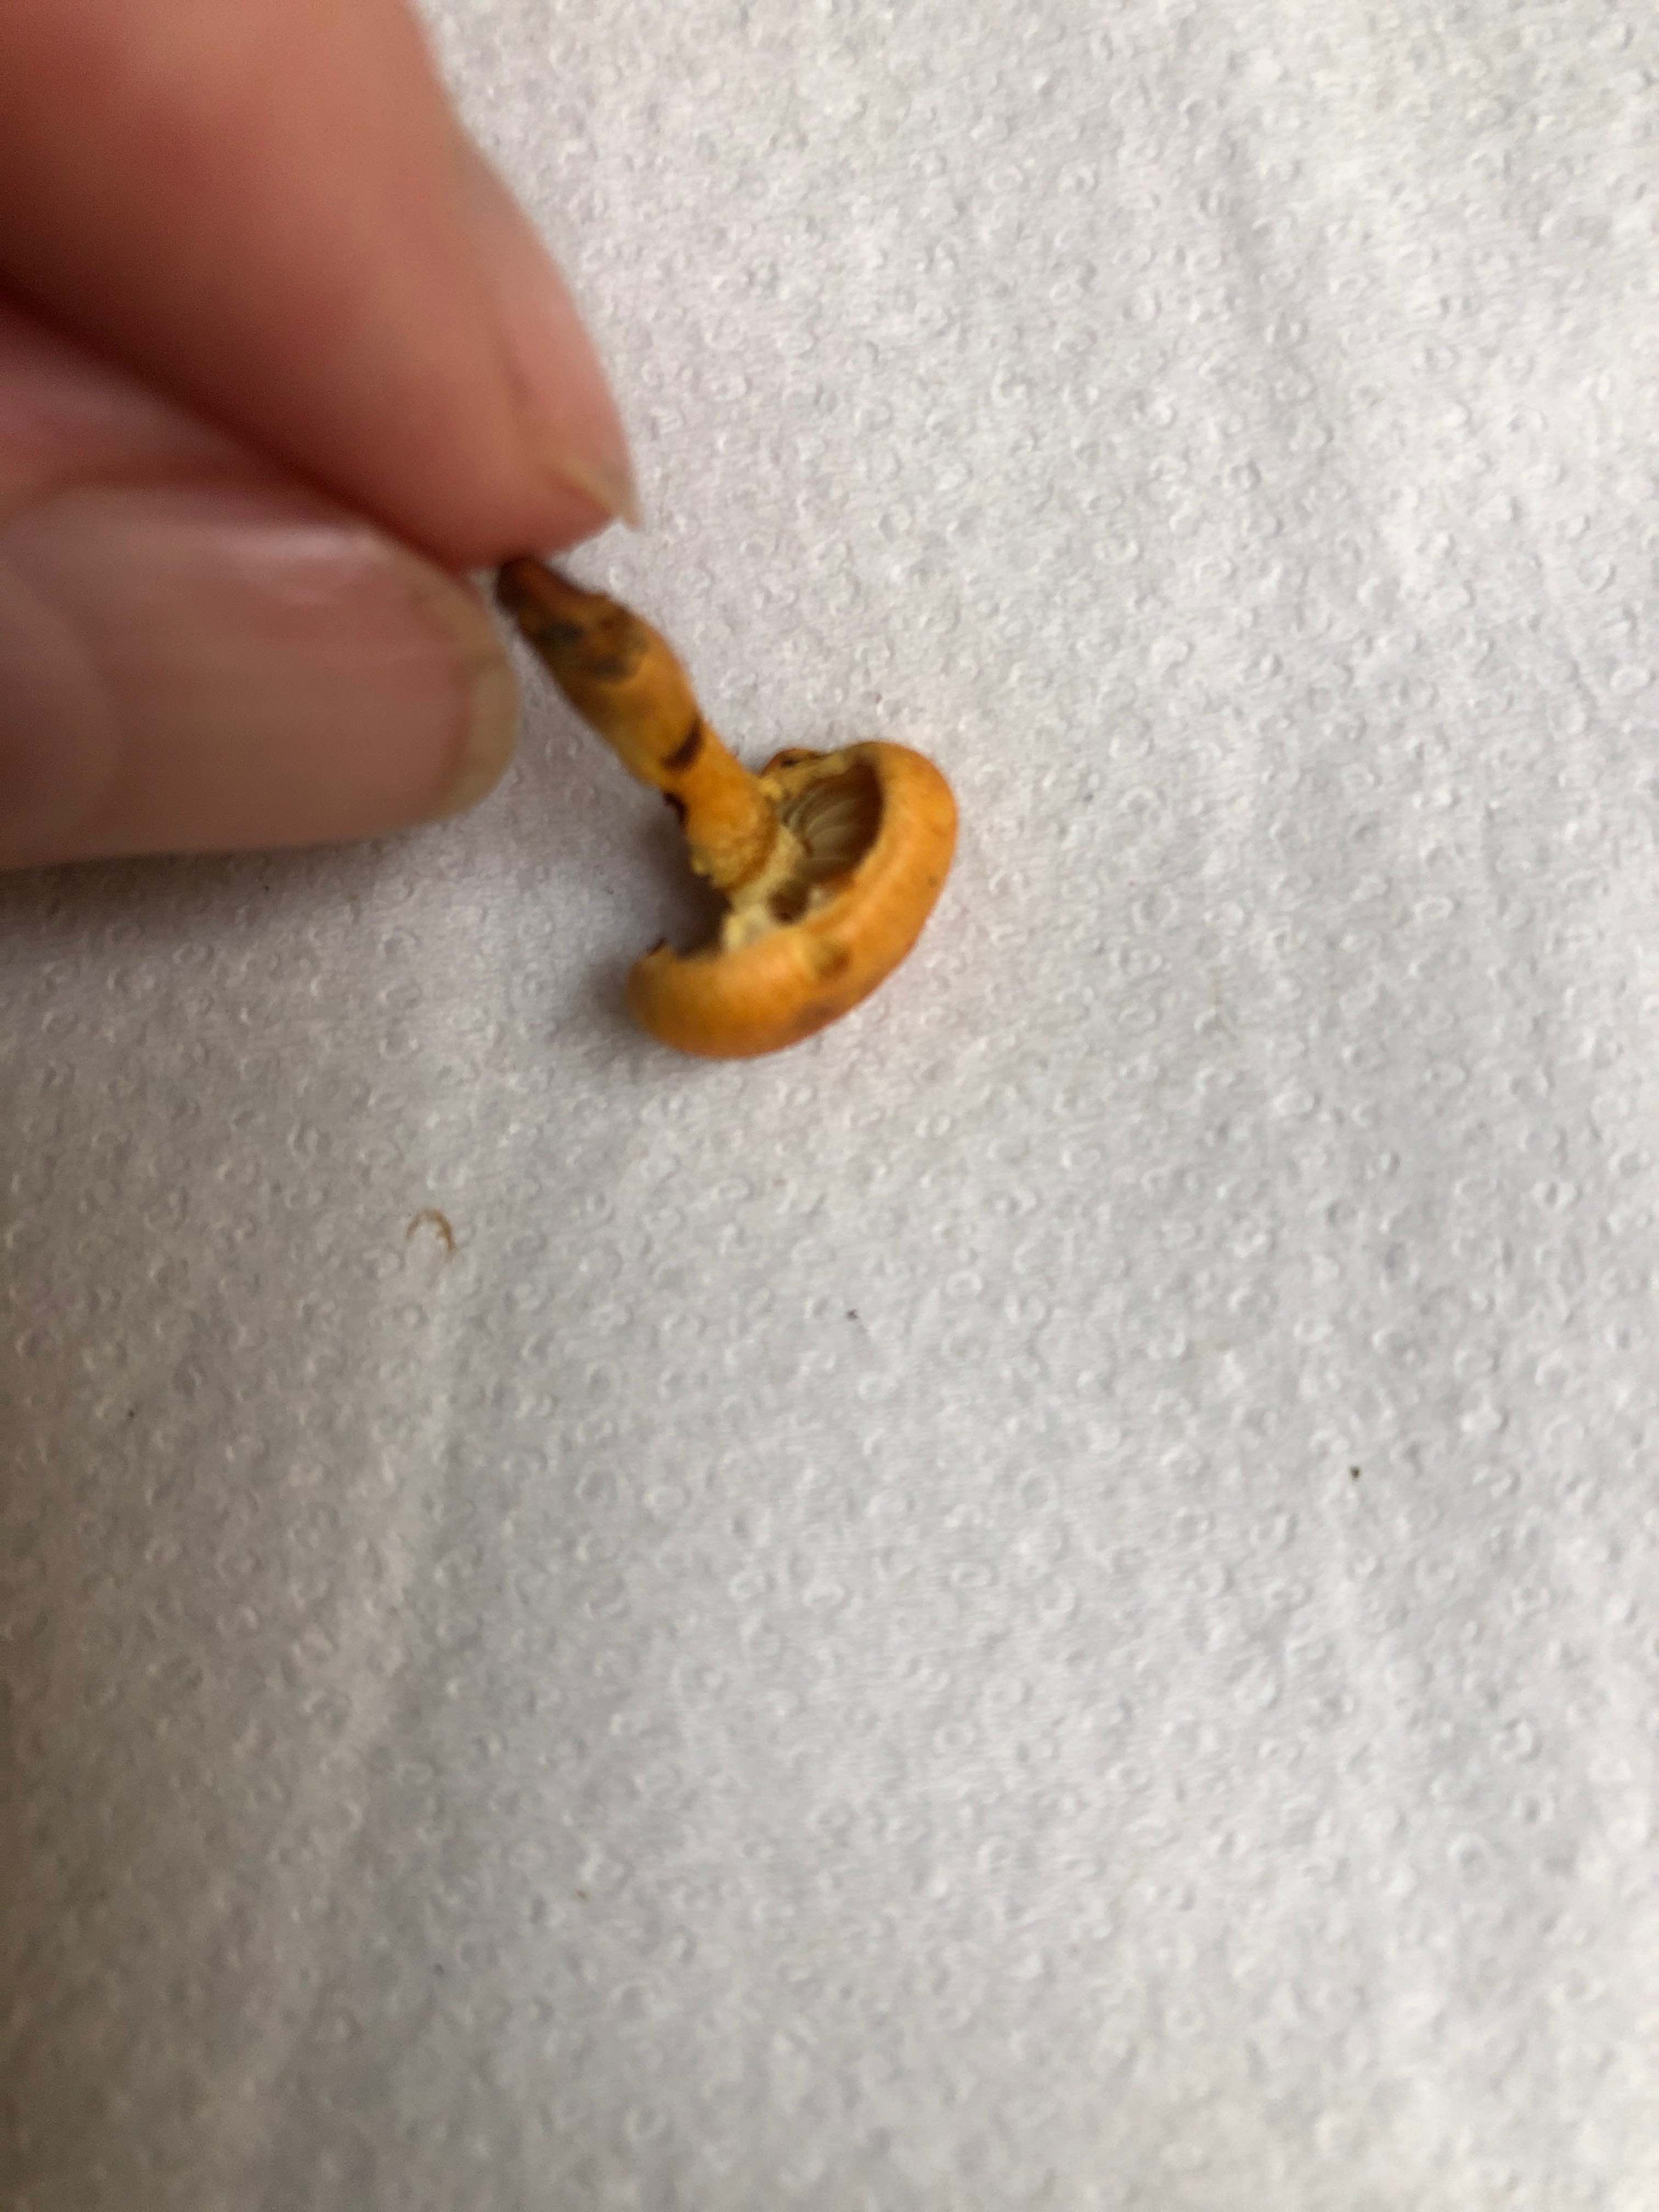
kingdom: Fungi
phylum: Basidiomycota
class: Agaricomycetes
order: Agaricales
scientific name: Agaricales
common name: champignonordenen
